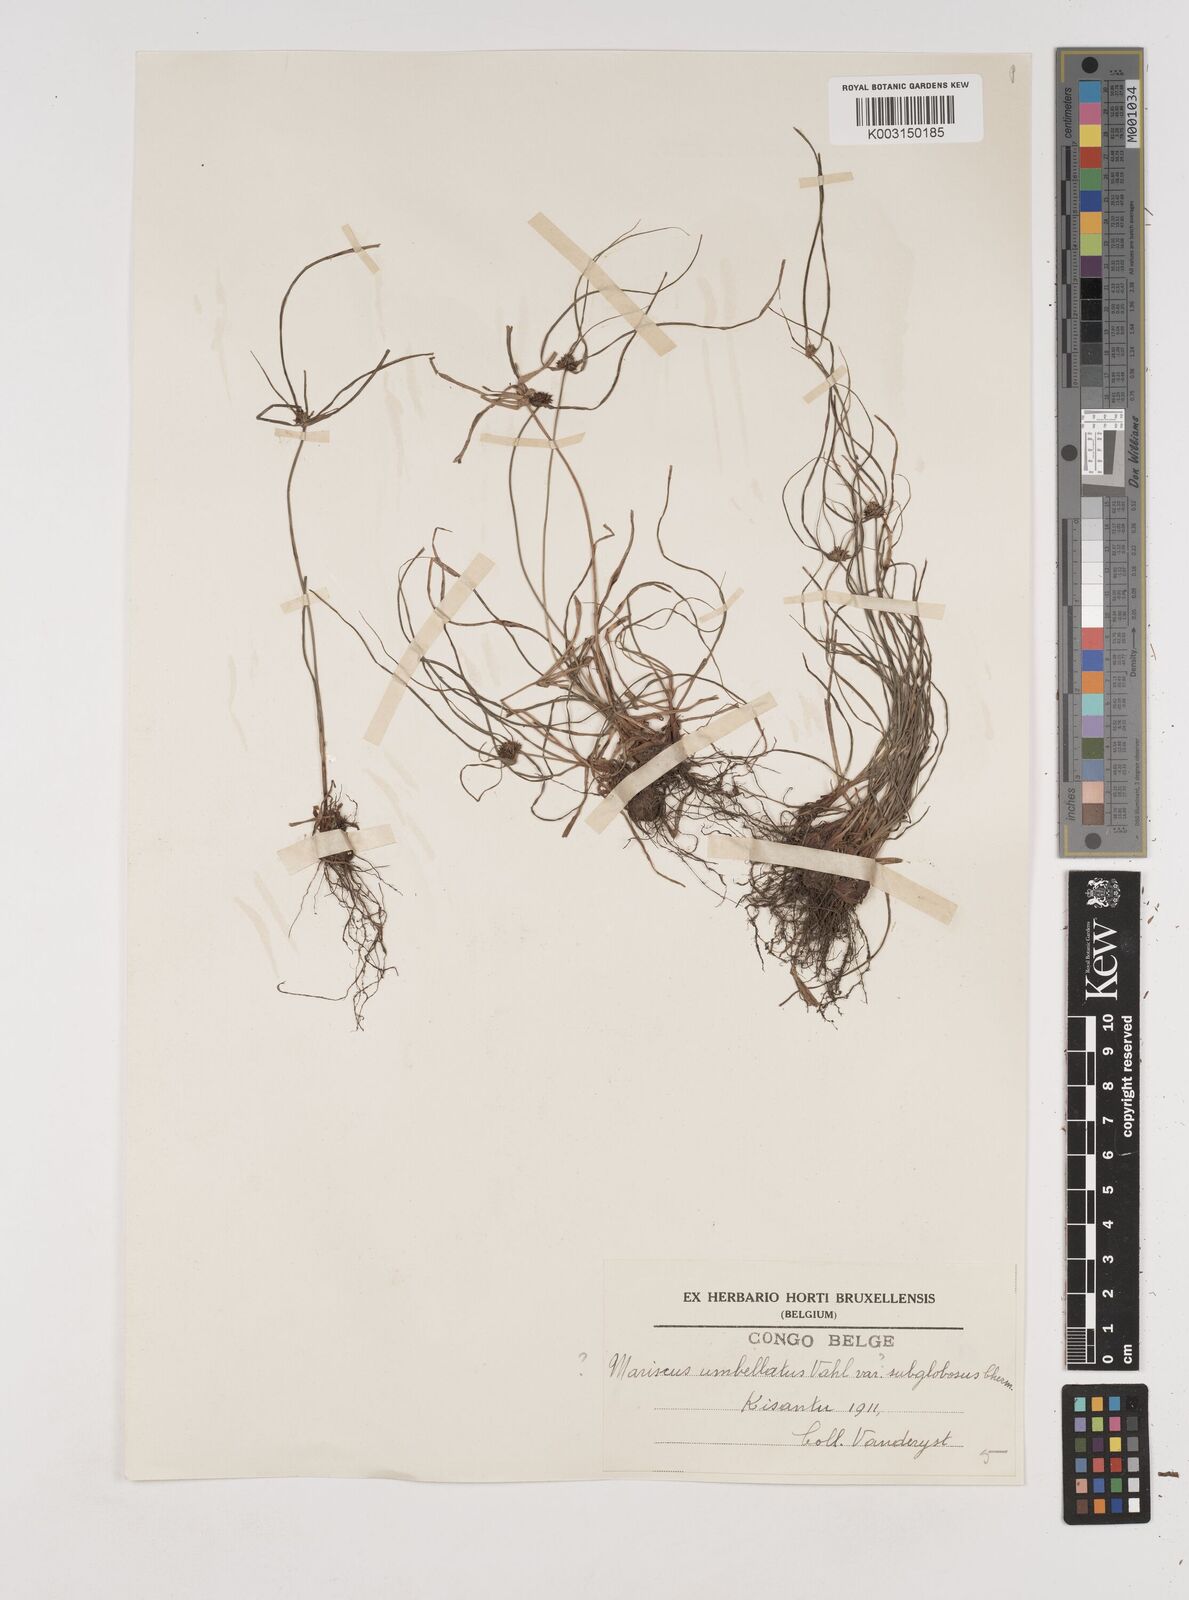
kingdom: Plantae
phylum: Tracheophyta
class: Liliopsida
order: Poales
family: Cyperaceae
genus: Cyperus
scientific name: Cyperus
